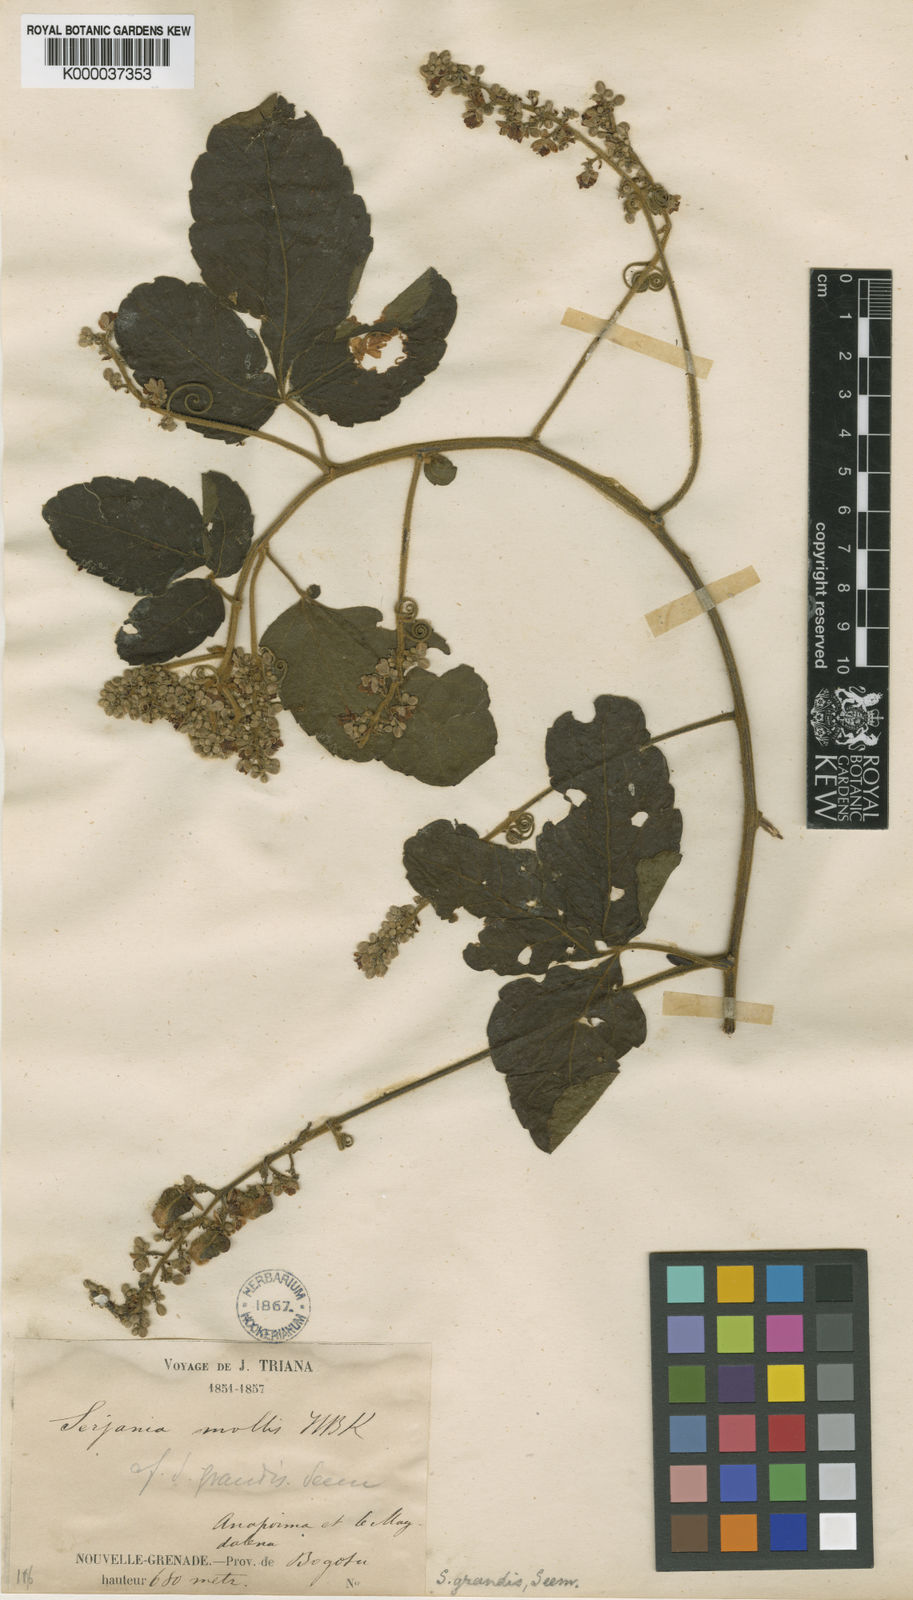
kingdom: Plantae
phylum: Tracheophyta
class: Magnoliopsida
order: Sapindales
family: Sapindaceae
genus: Serjania
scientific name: Serjania dasyclados
